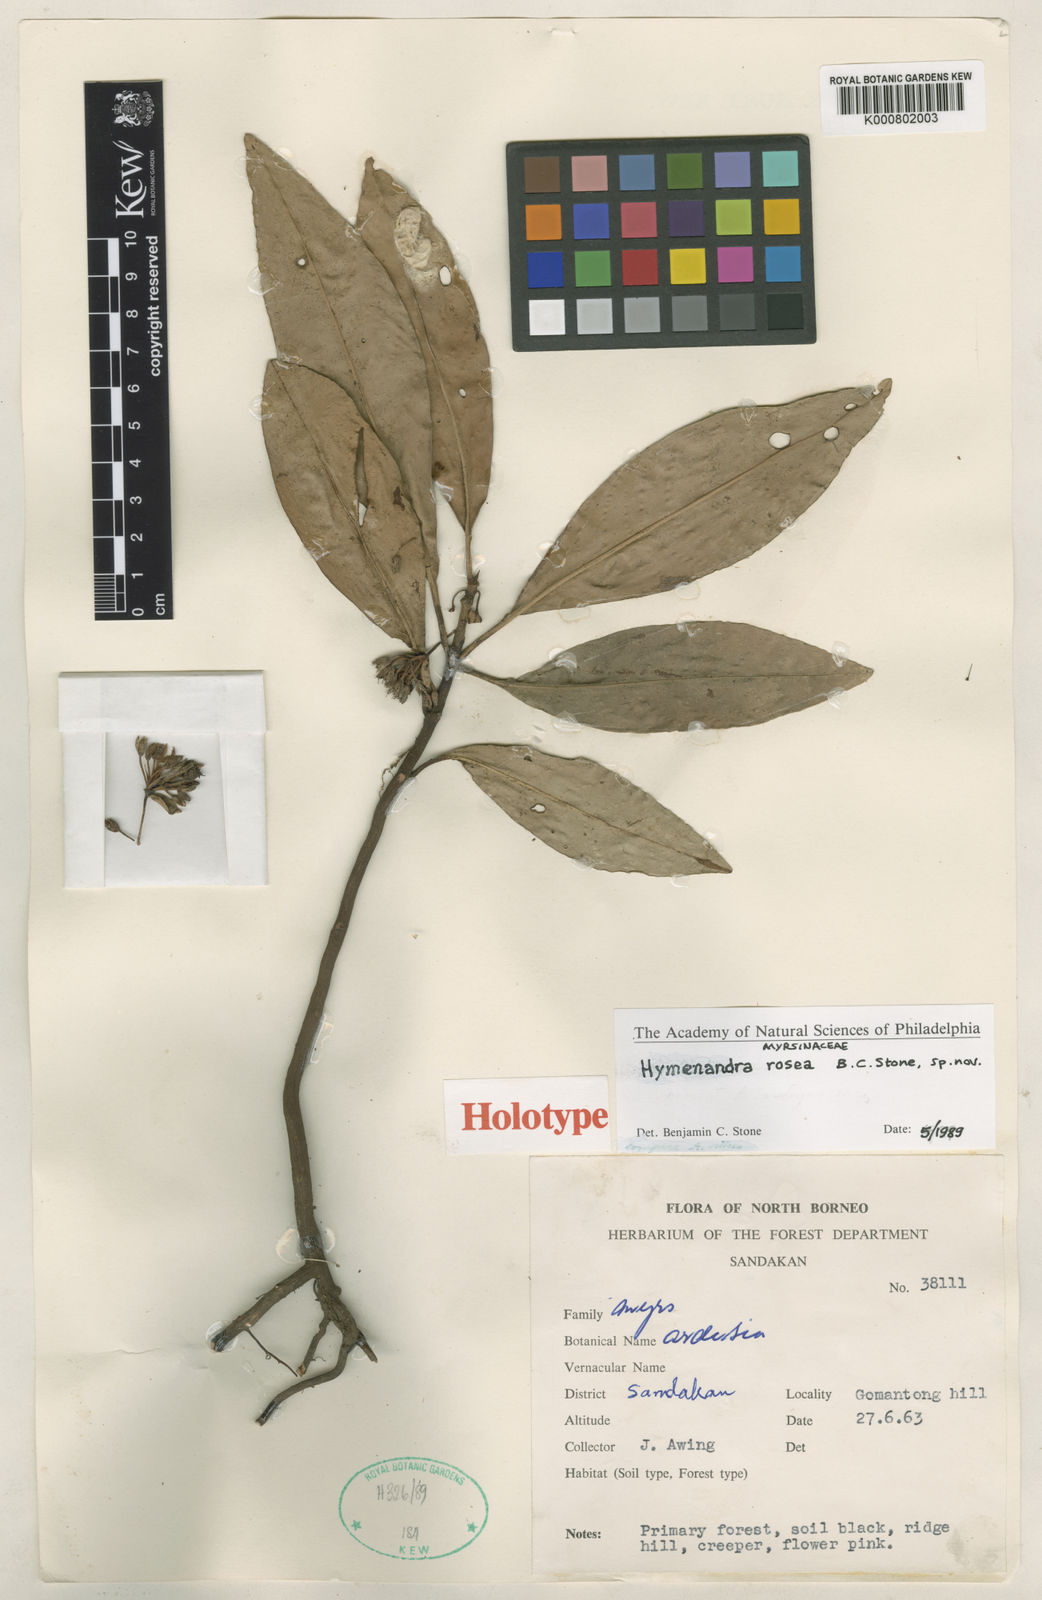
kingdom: Plantae
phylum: Tracheophyta
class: Magnoliopsida
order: Ericales
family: Primulaceae
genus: Hymenandra
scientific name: Hymenandra rosea
